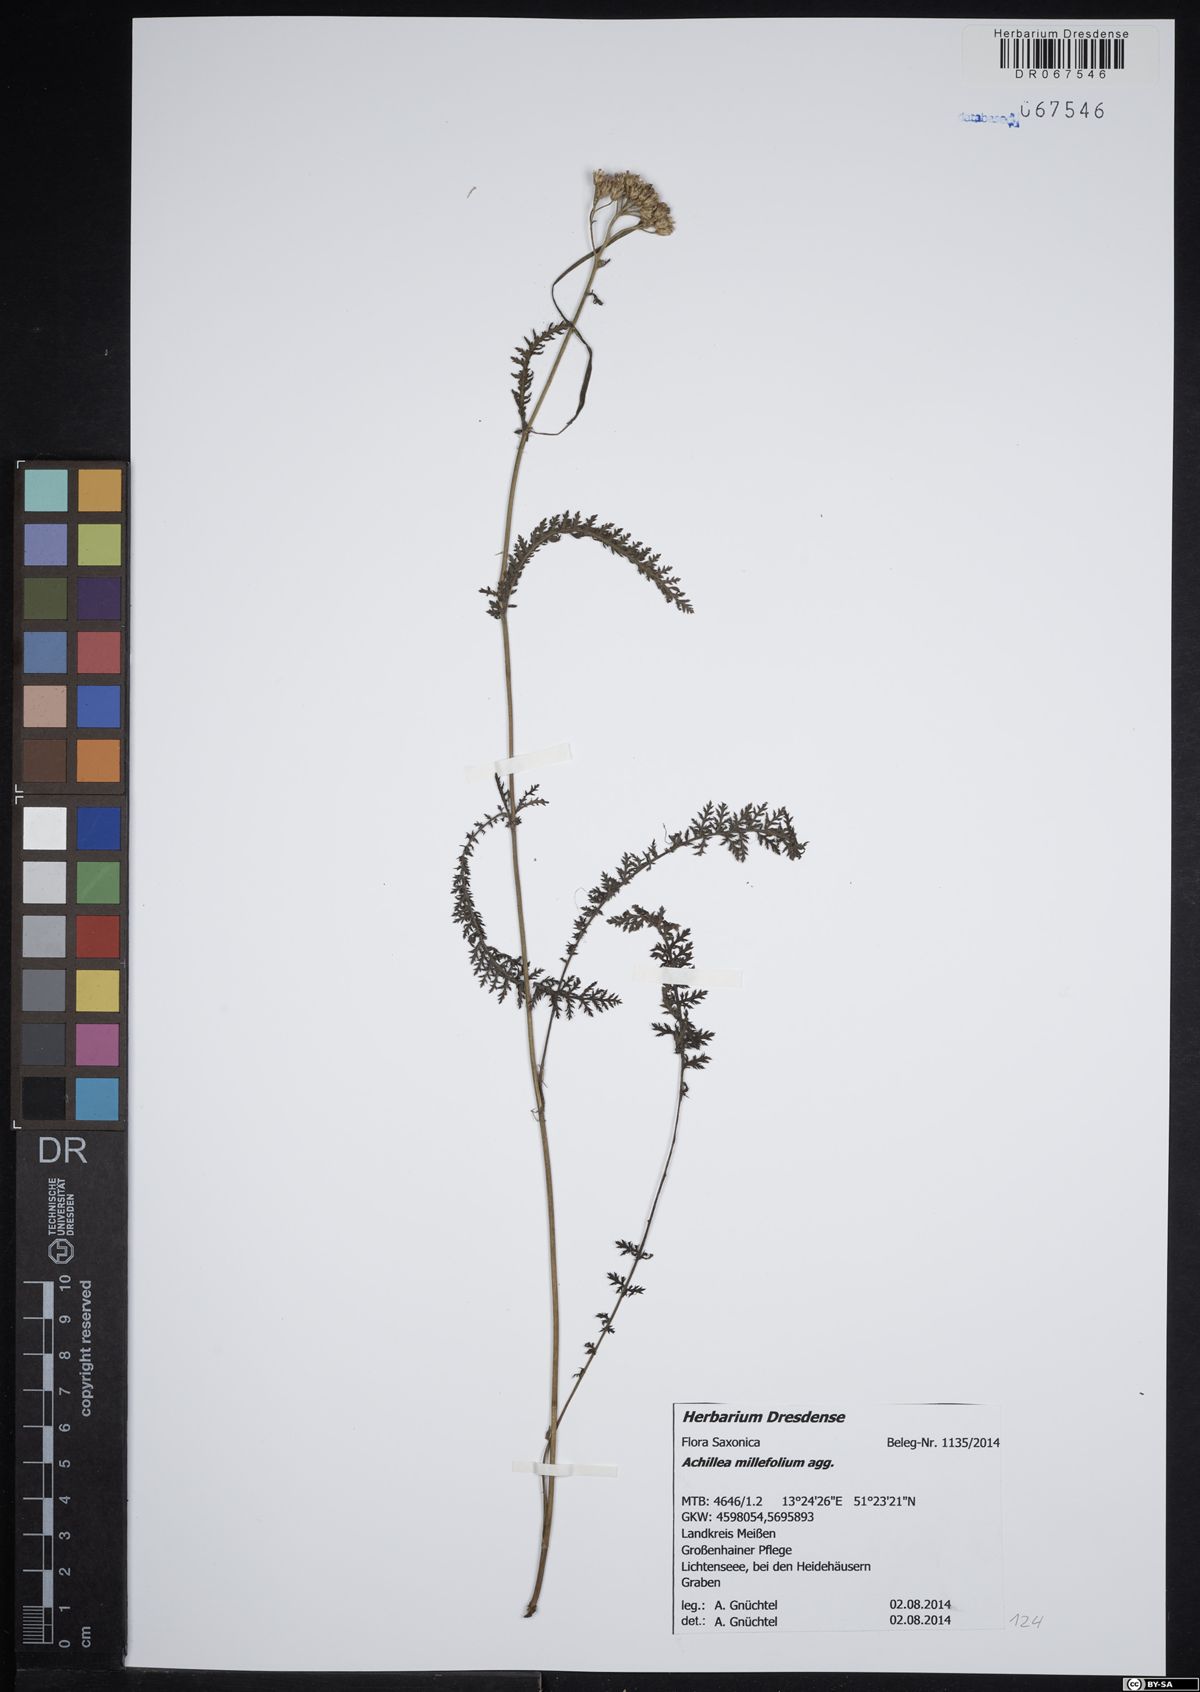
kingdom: Plantae
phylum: Tracheophyta
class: Magnoliopsida
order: Asterales
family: Asteraceae
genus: Achillea
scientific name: Achillea millefolium
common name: Yarrow
